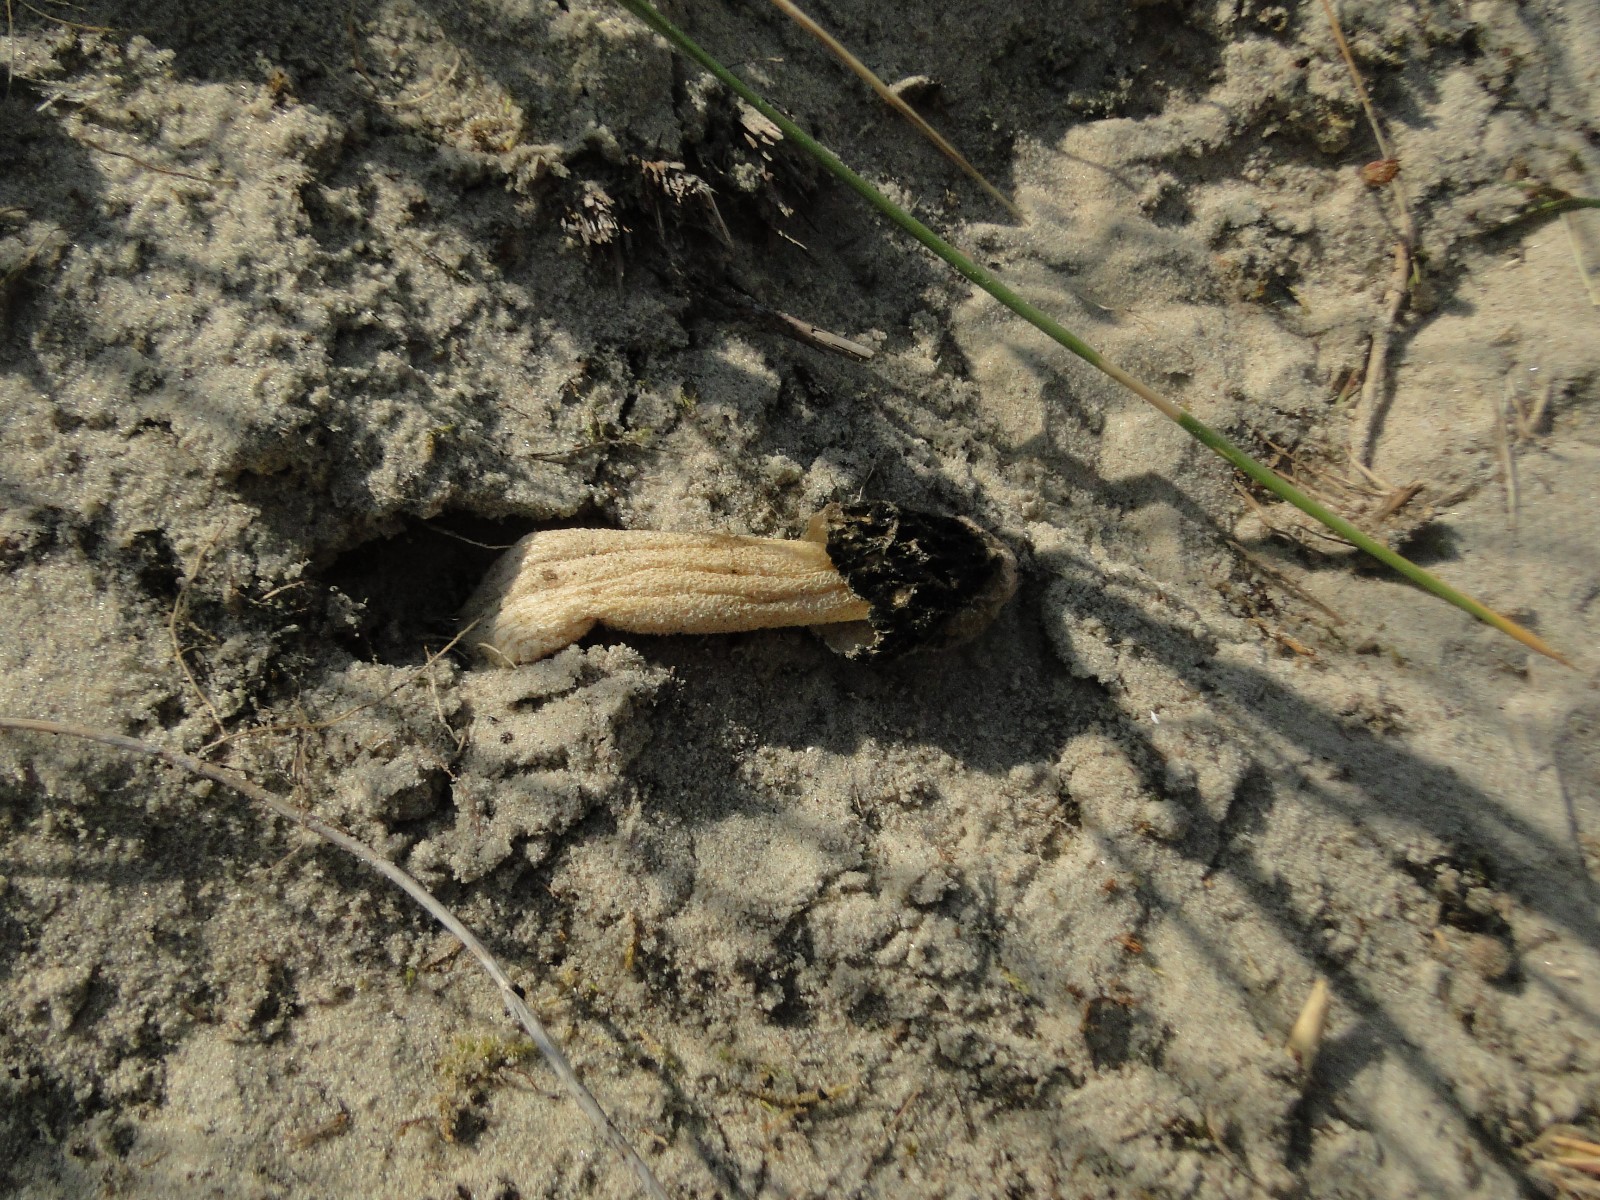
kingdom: Fungi
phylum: Basidiomycota
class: Agaricomycetes
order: Phallales
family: Phallaceae
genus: Phallus
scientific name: Phallus
